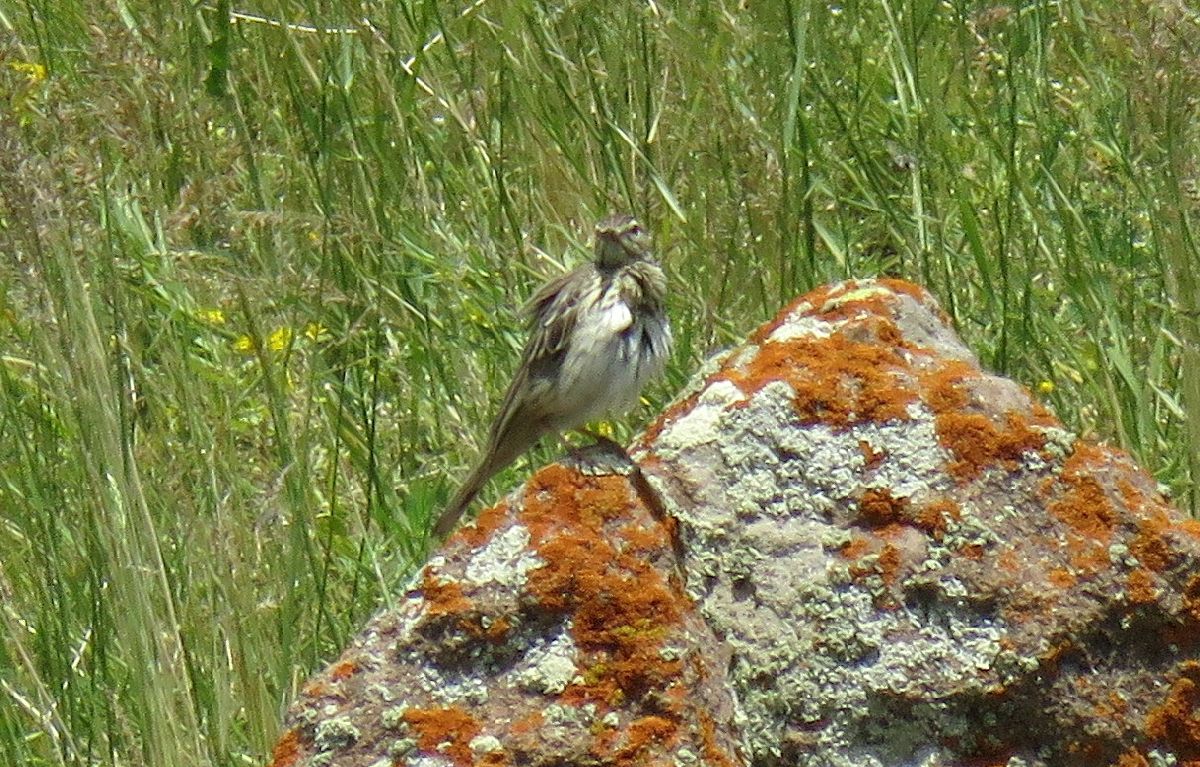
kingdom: Animalia
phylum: Chordata
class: Aves
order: Passeriformes
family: Motacillidae
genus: Anthus
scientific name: Anthus campestris
